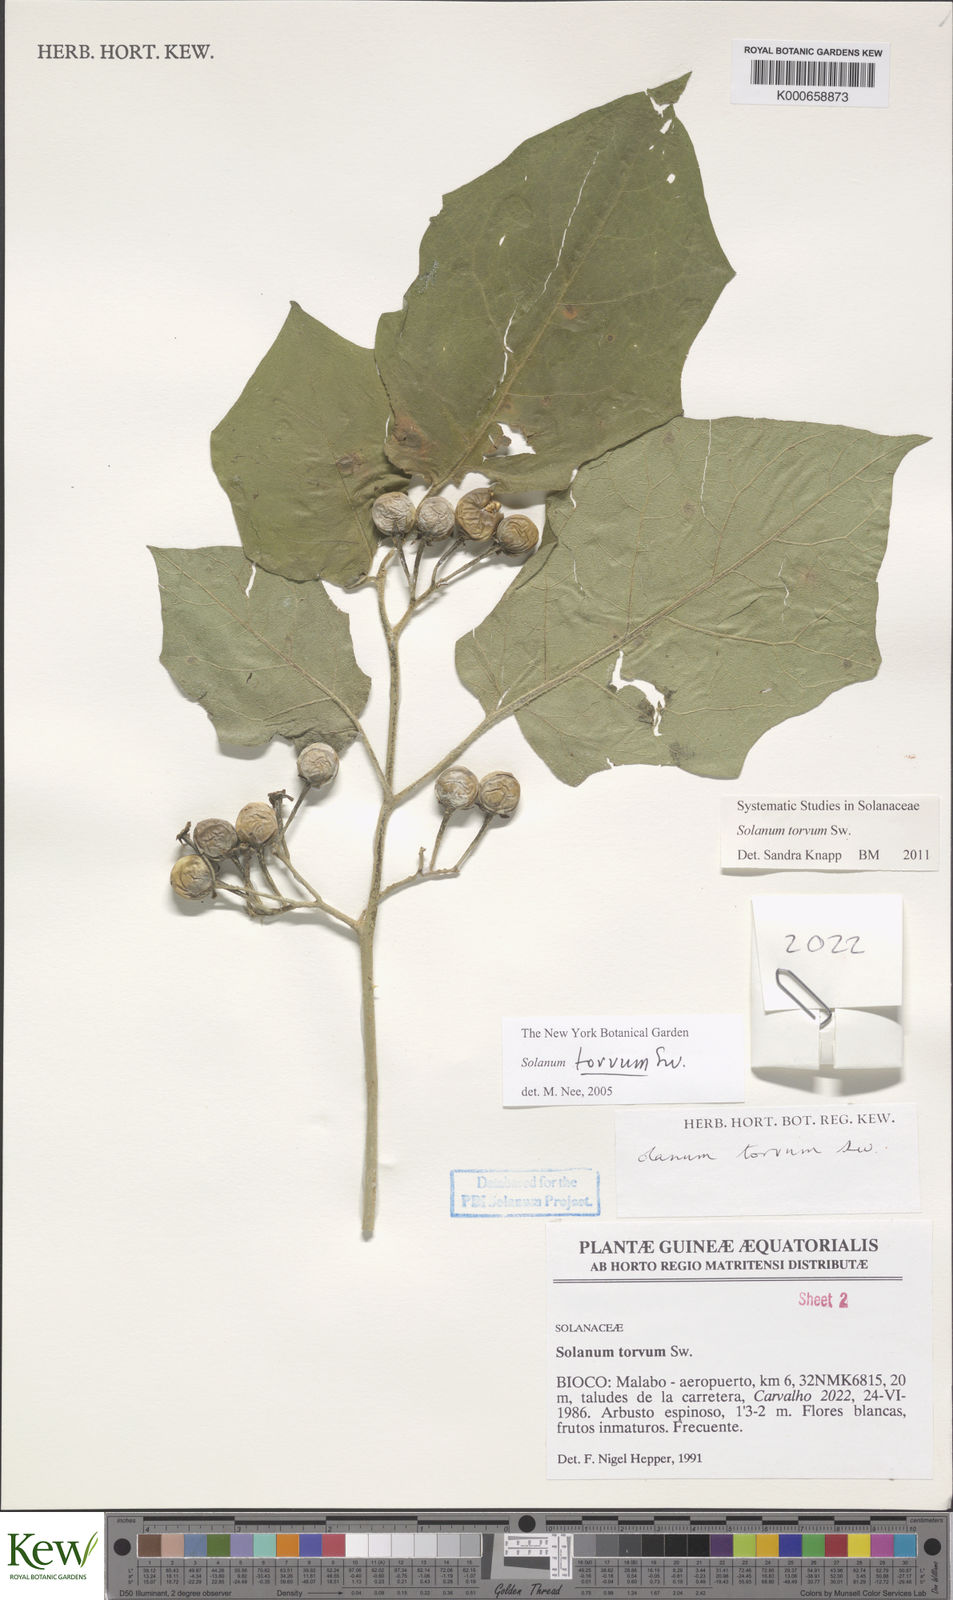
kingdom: Plantae
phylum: Tracheophyta
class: Magnoliopsida
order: Solanales
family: Solanaceae
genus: Solanum
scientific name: Solanum torvum
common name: Turkey berry
